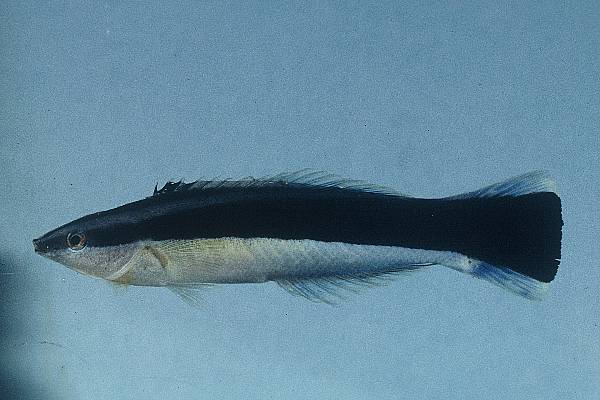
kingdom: Animalia
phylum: Chordata
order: Perciformes
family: Labridae
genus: Labroides
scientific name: Labroides dimidiatus
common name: Blue diesel wrasse
